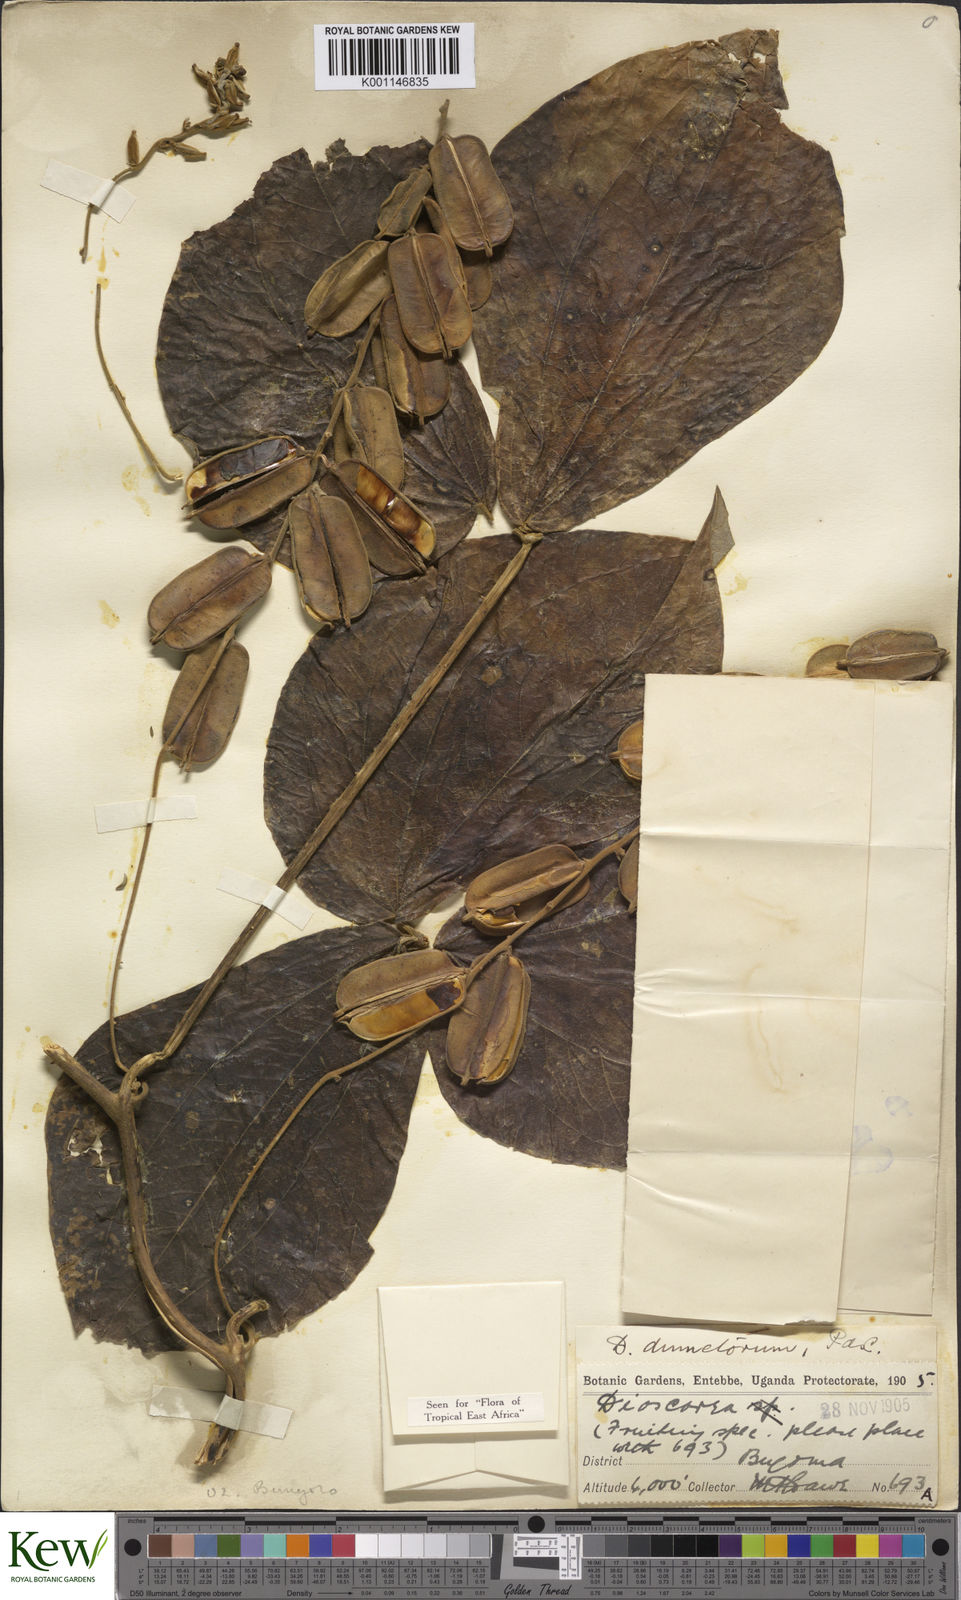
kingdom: Plantae
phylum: Tracheophyta
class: Liliopsida
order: Dioscoreales
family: Dioscoreaceae
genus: Dioscorea
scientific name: Dioscorea dumetorum
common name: African bitter yam
